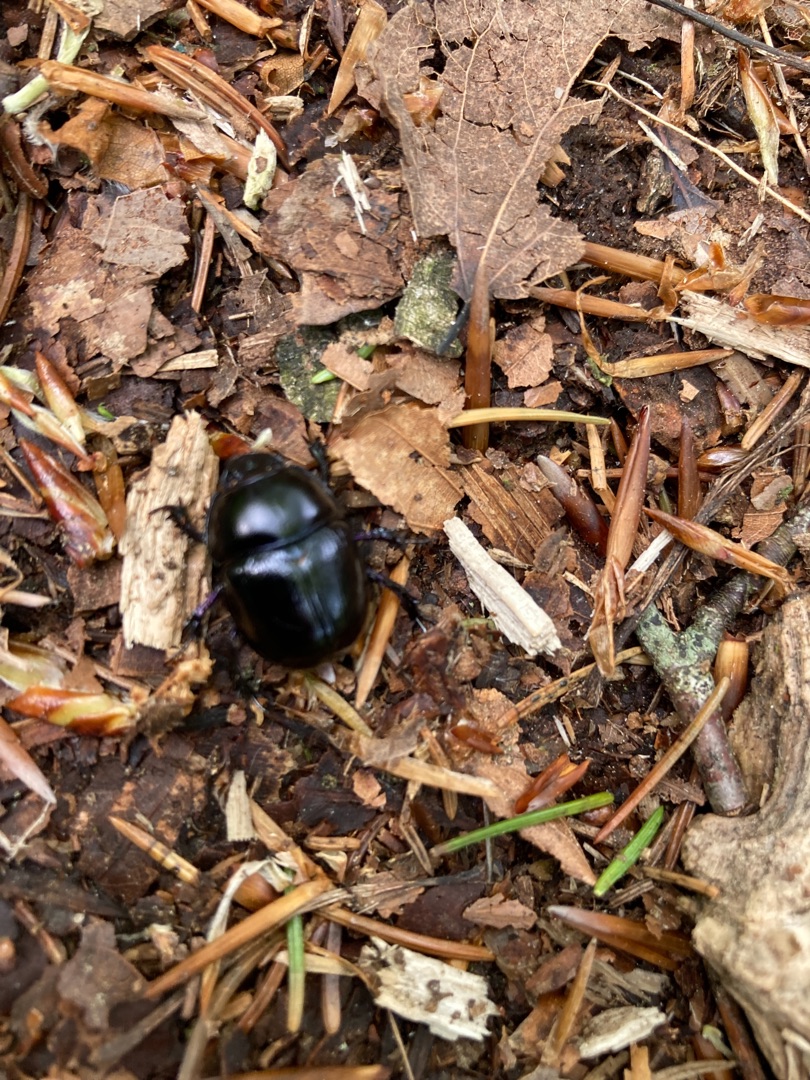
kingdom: Animalia
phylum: Arthropoda
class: Insecta
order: Coleoptera
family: Geotrupidae
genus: Anoplotrupes
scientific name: Anoplotrupes stercorosus
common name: Skovskarnbasse
